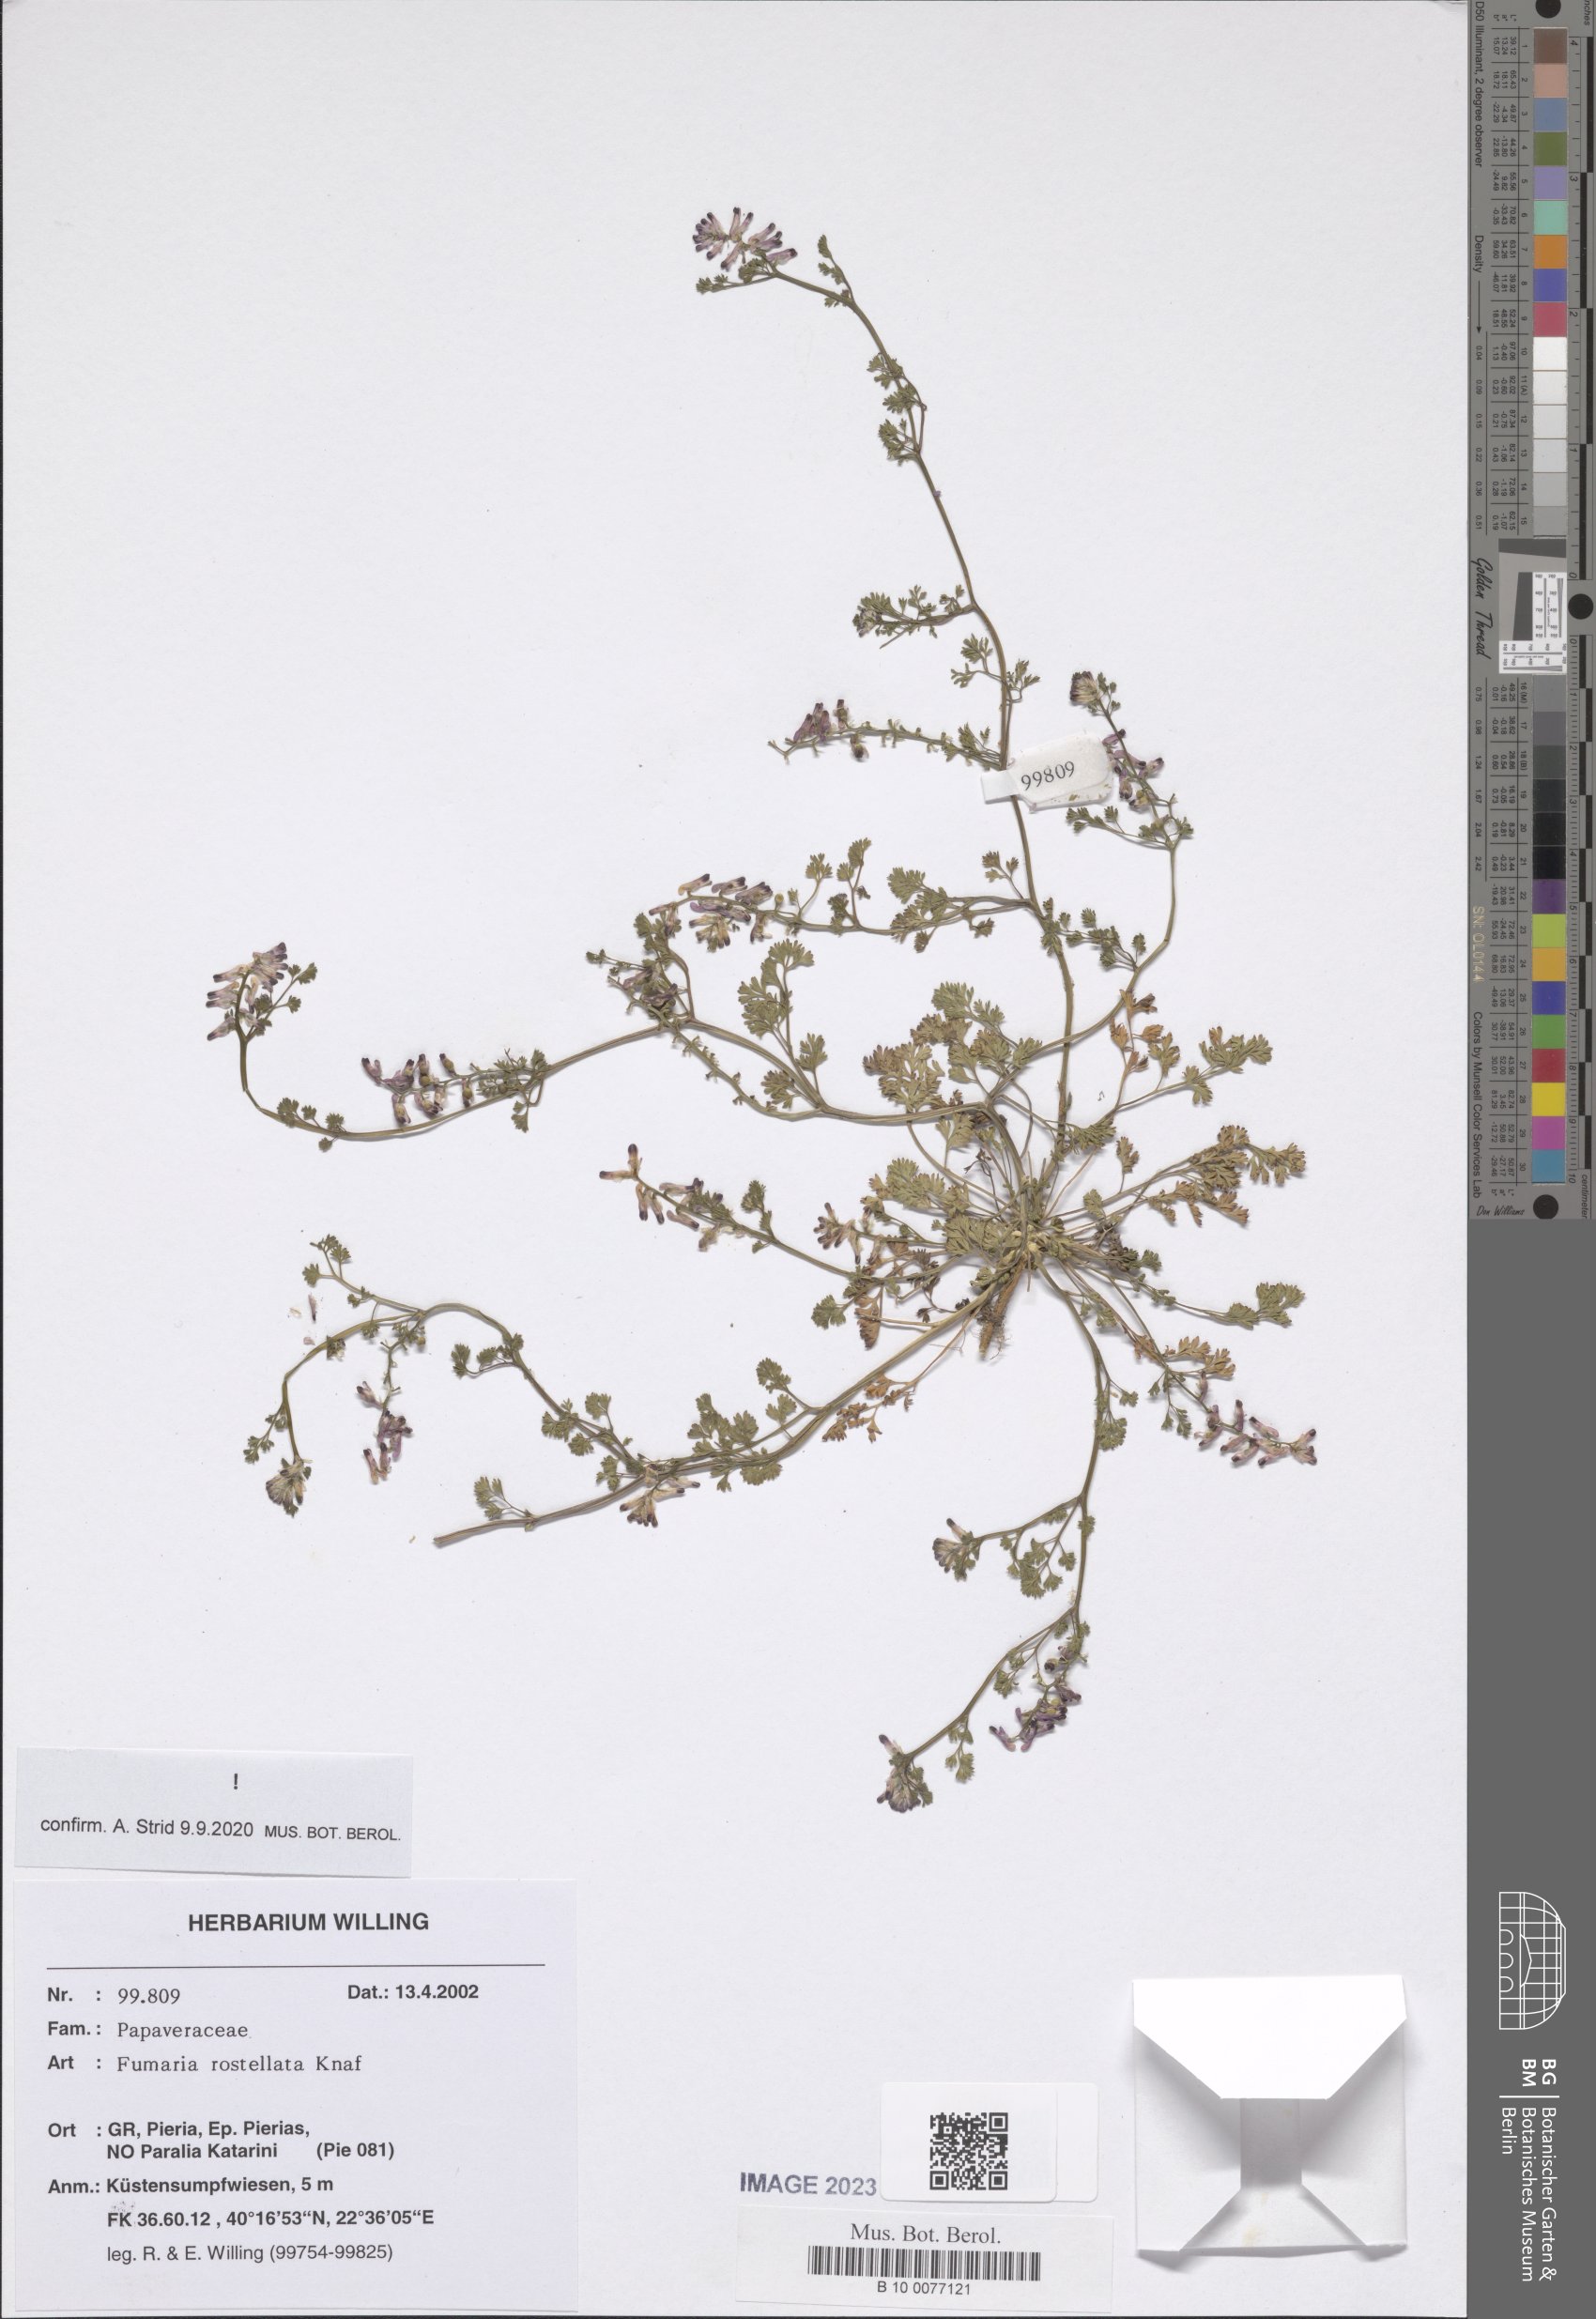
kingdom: Plantae
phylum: Tracheophyta
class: Magnoliopsida
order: Ranunculales
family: Papaveraceae
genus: Fumaria
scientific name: Fumaria rostellata
